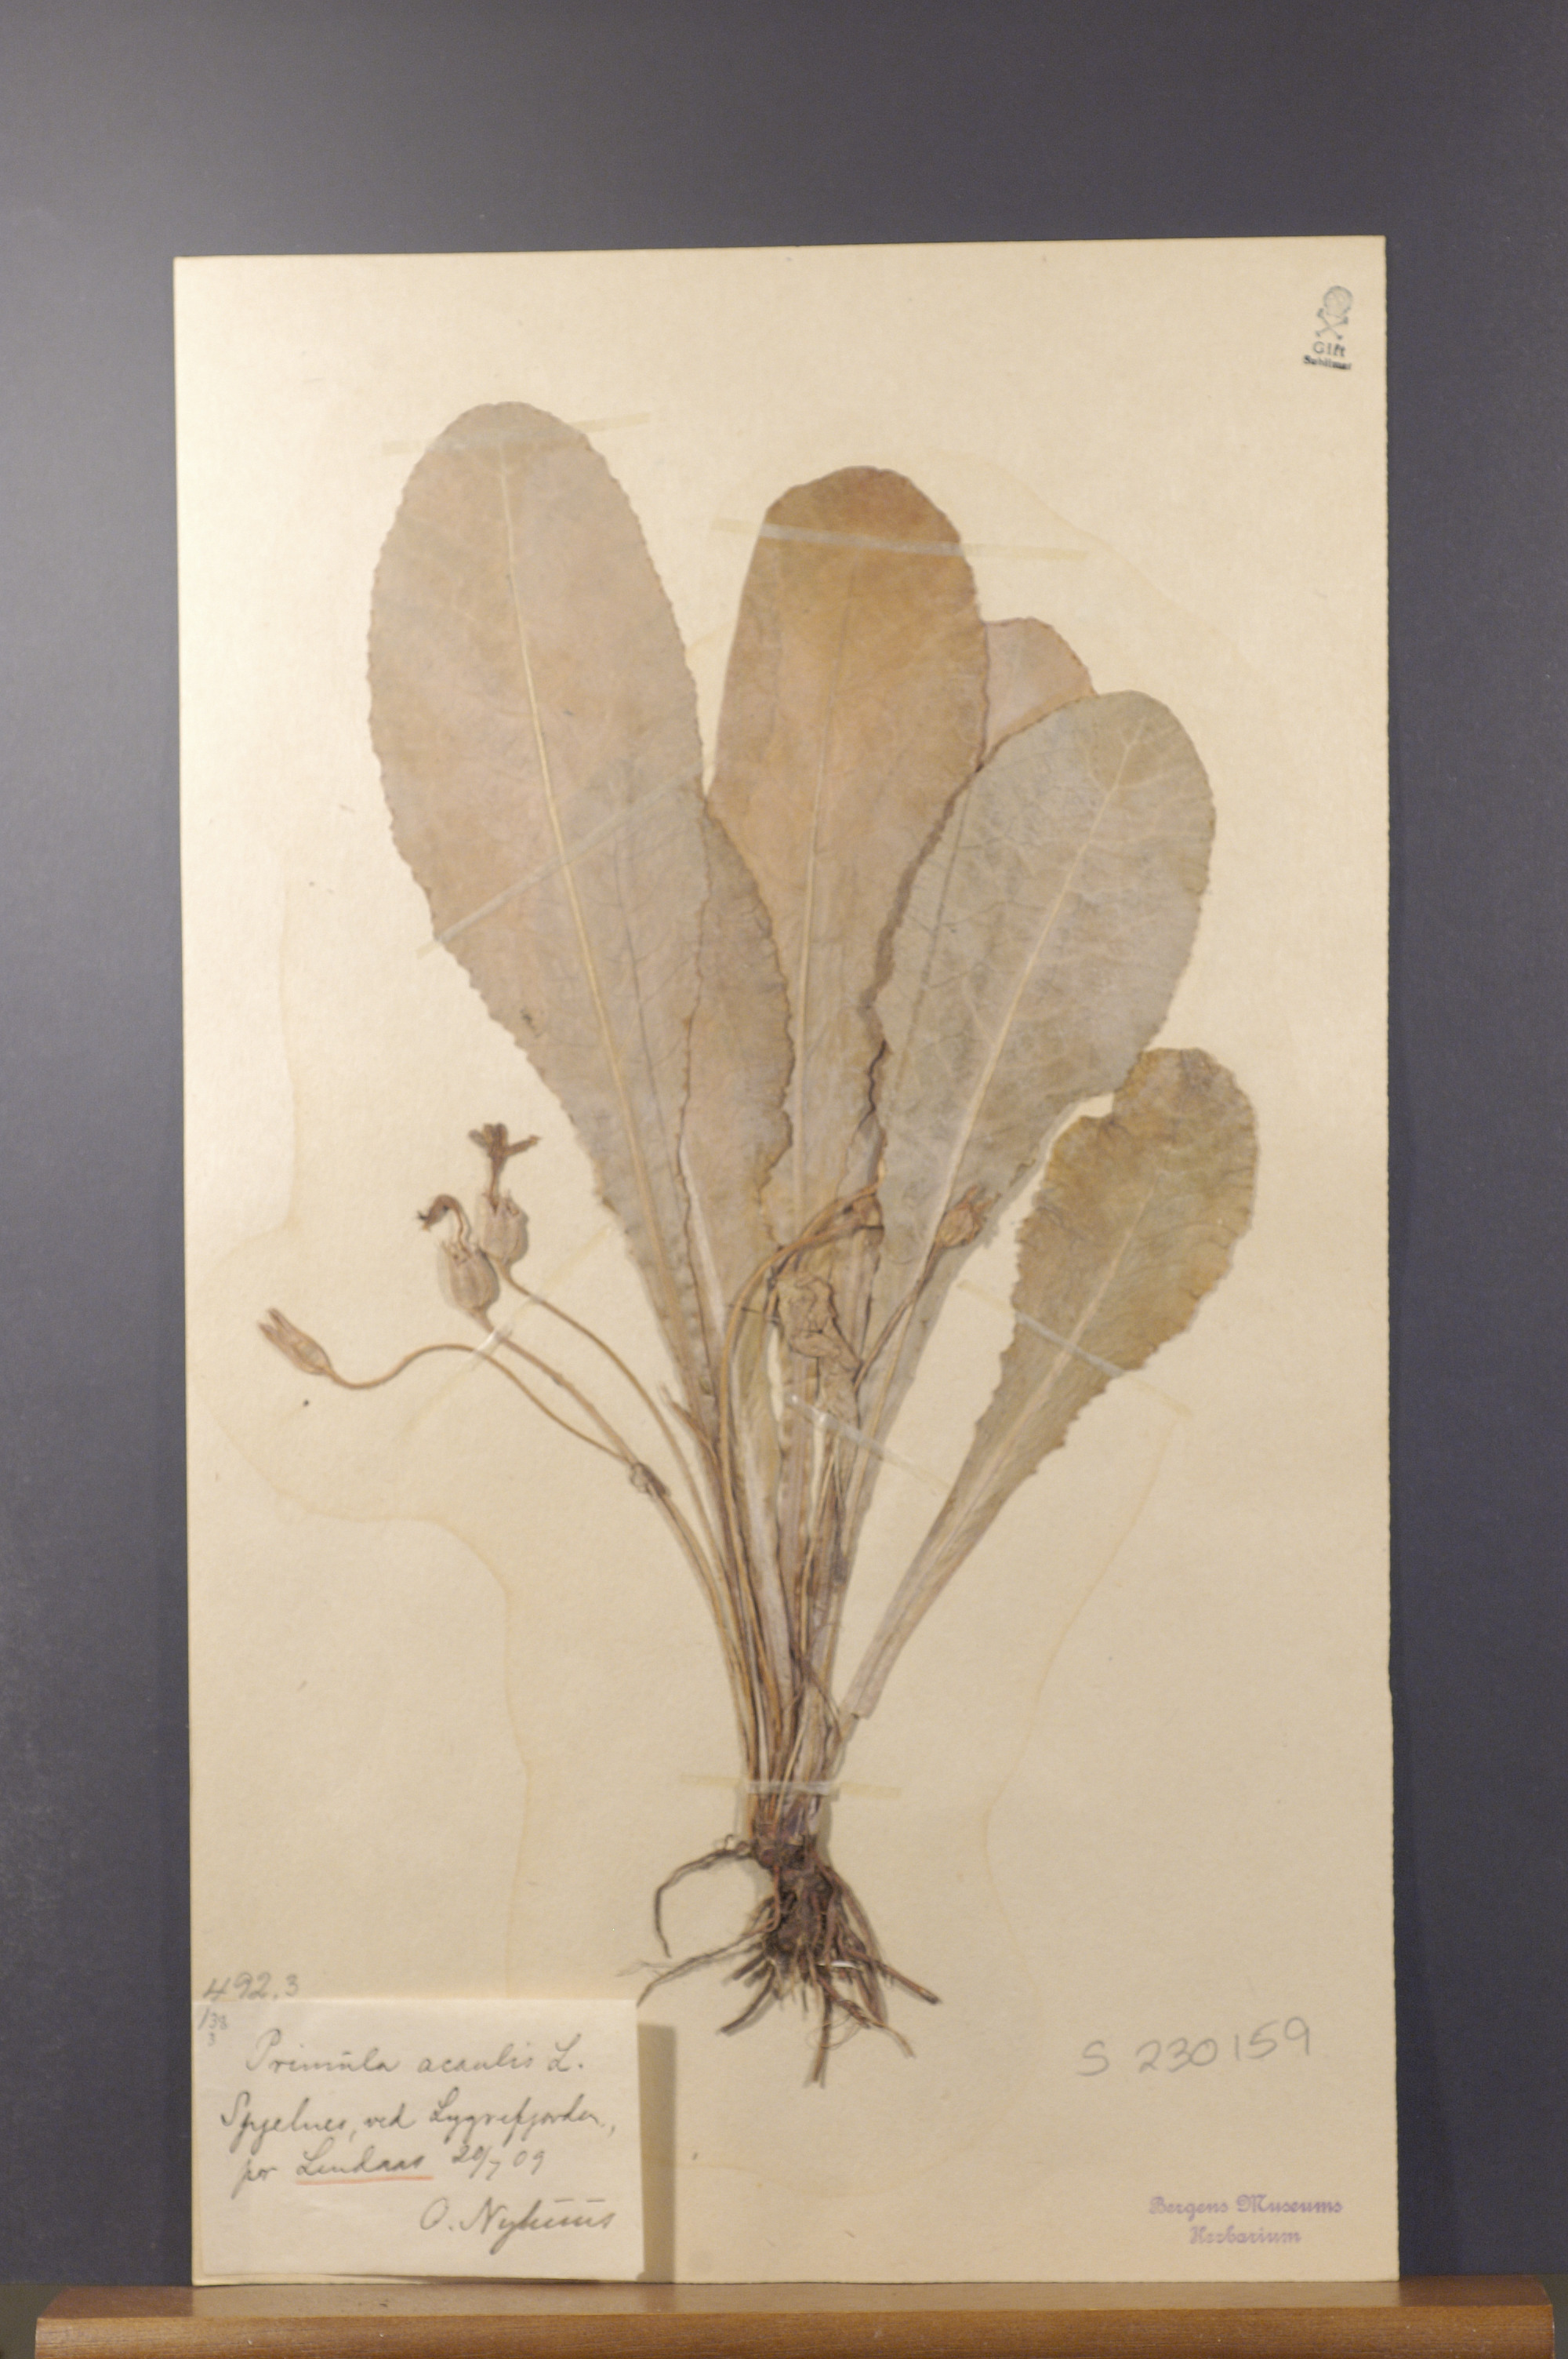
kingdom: Plantae
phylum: Tracheophyta
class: Magnoliopsida
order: Ericales
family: Primulaceae
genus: Primula
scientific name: Primula vulgaris
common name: Primrose
